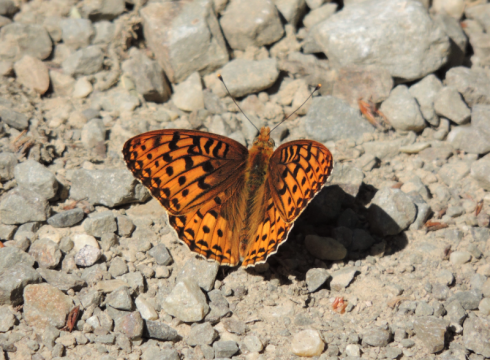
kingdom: Animalia
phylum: Arthropoda
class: Insecta
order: Lepidoptera
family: Nymphalidae
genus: Speyeria
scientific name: Speyeria hydaspe
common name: Hydaspe Fritillary
